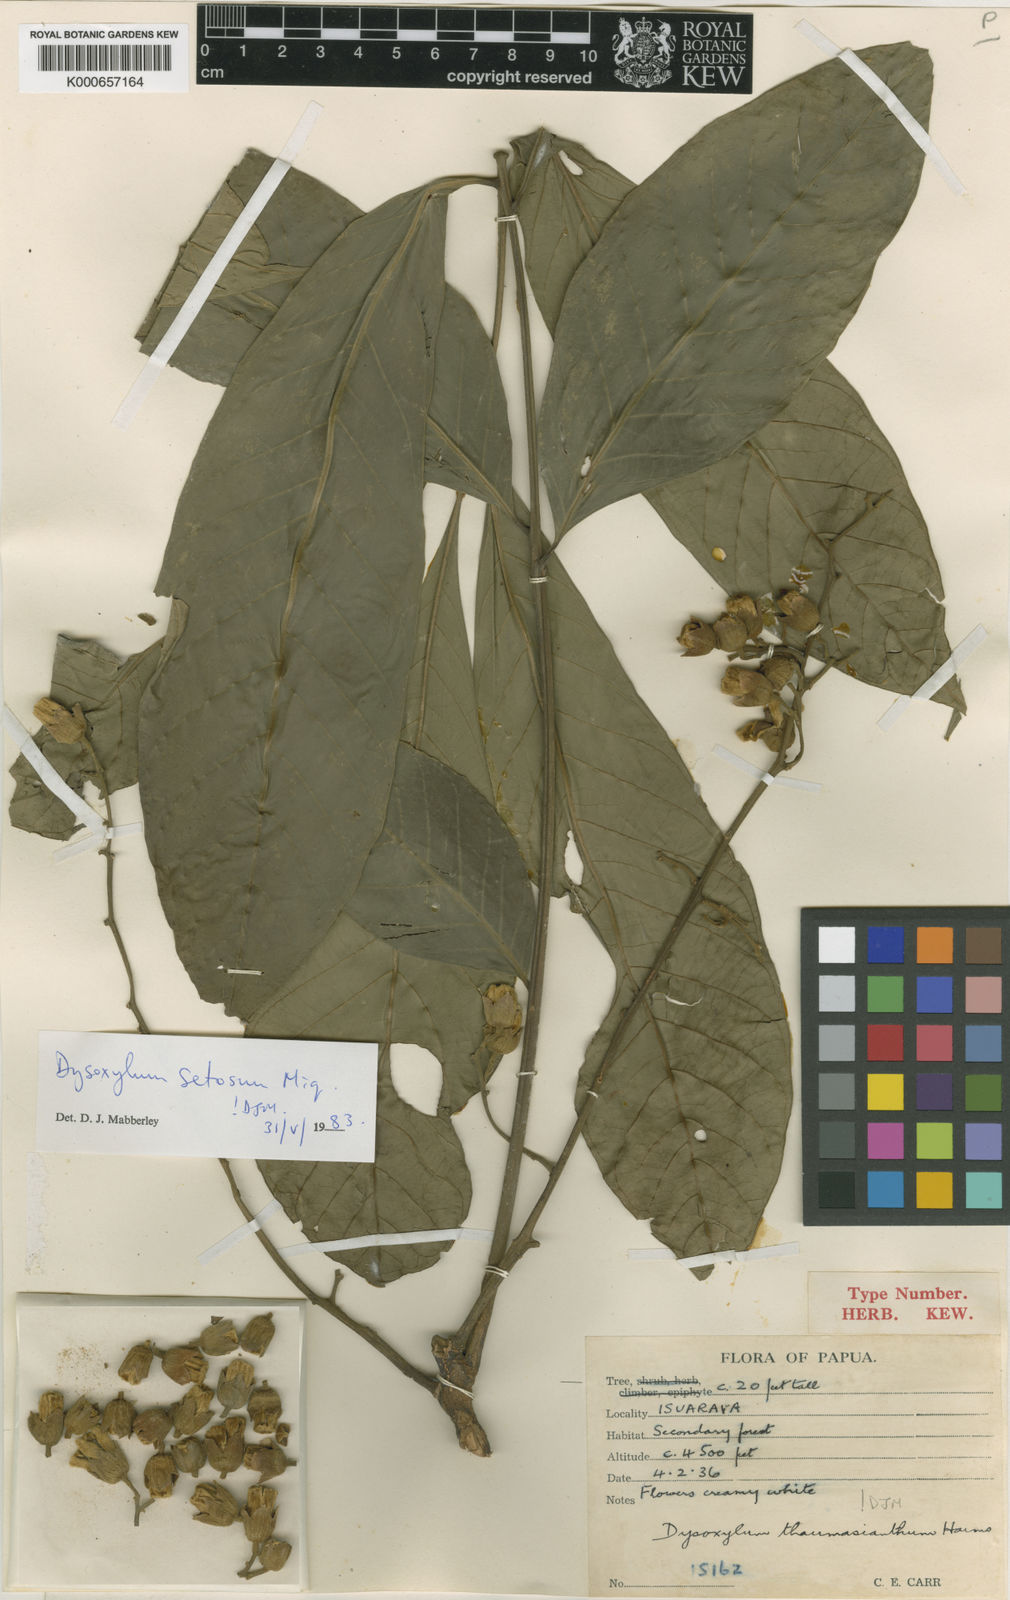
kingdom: Plantae
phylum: Tracheophyta
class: Magnoliopsida
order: Sapindales
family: Meliaceae
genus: Didymocheton
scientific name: Didymocheton setosus
